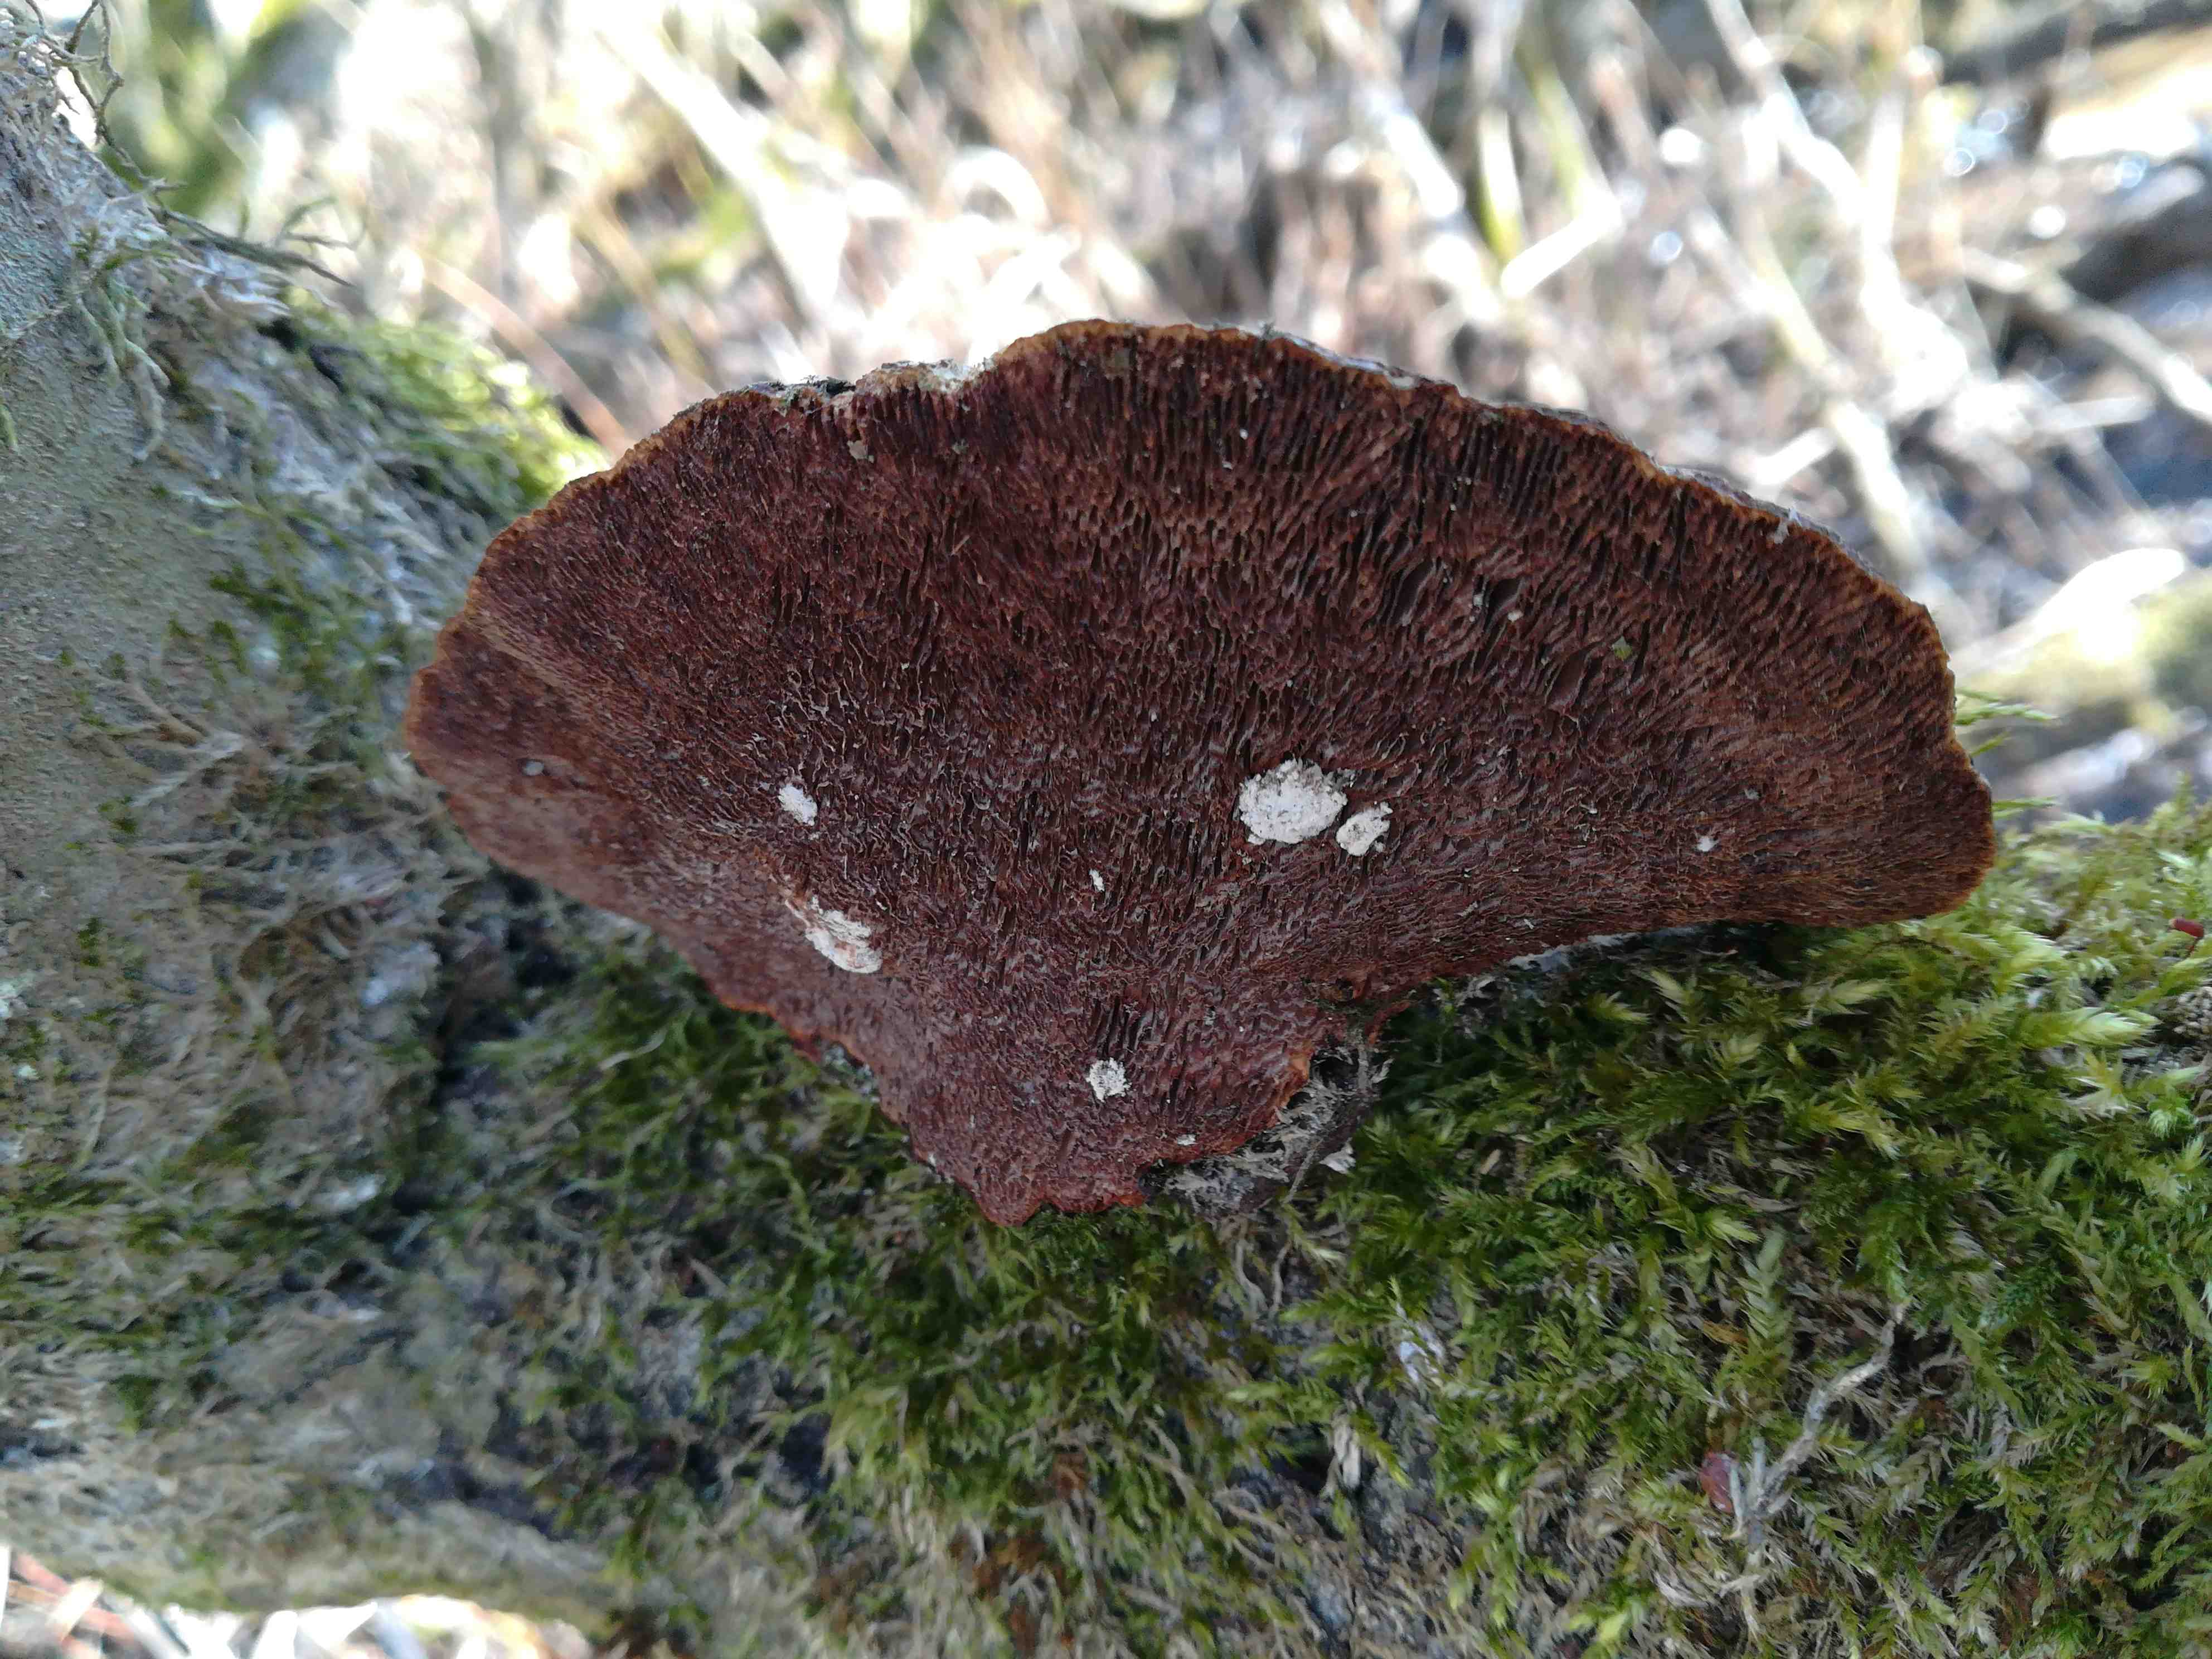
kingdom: Fungi
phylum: Basidiomycota
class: Agaricomycetes
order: Polyporales
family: Polyporaceae
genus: Daedaleopsis
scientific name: Daedaleopsis confragosa
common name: rødmende læderporesvamp
